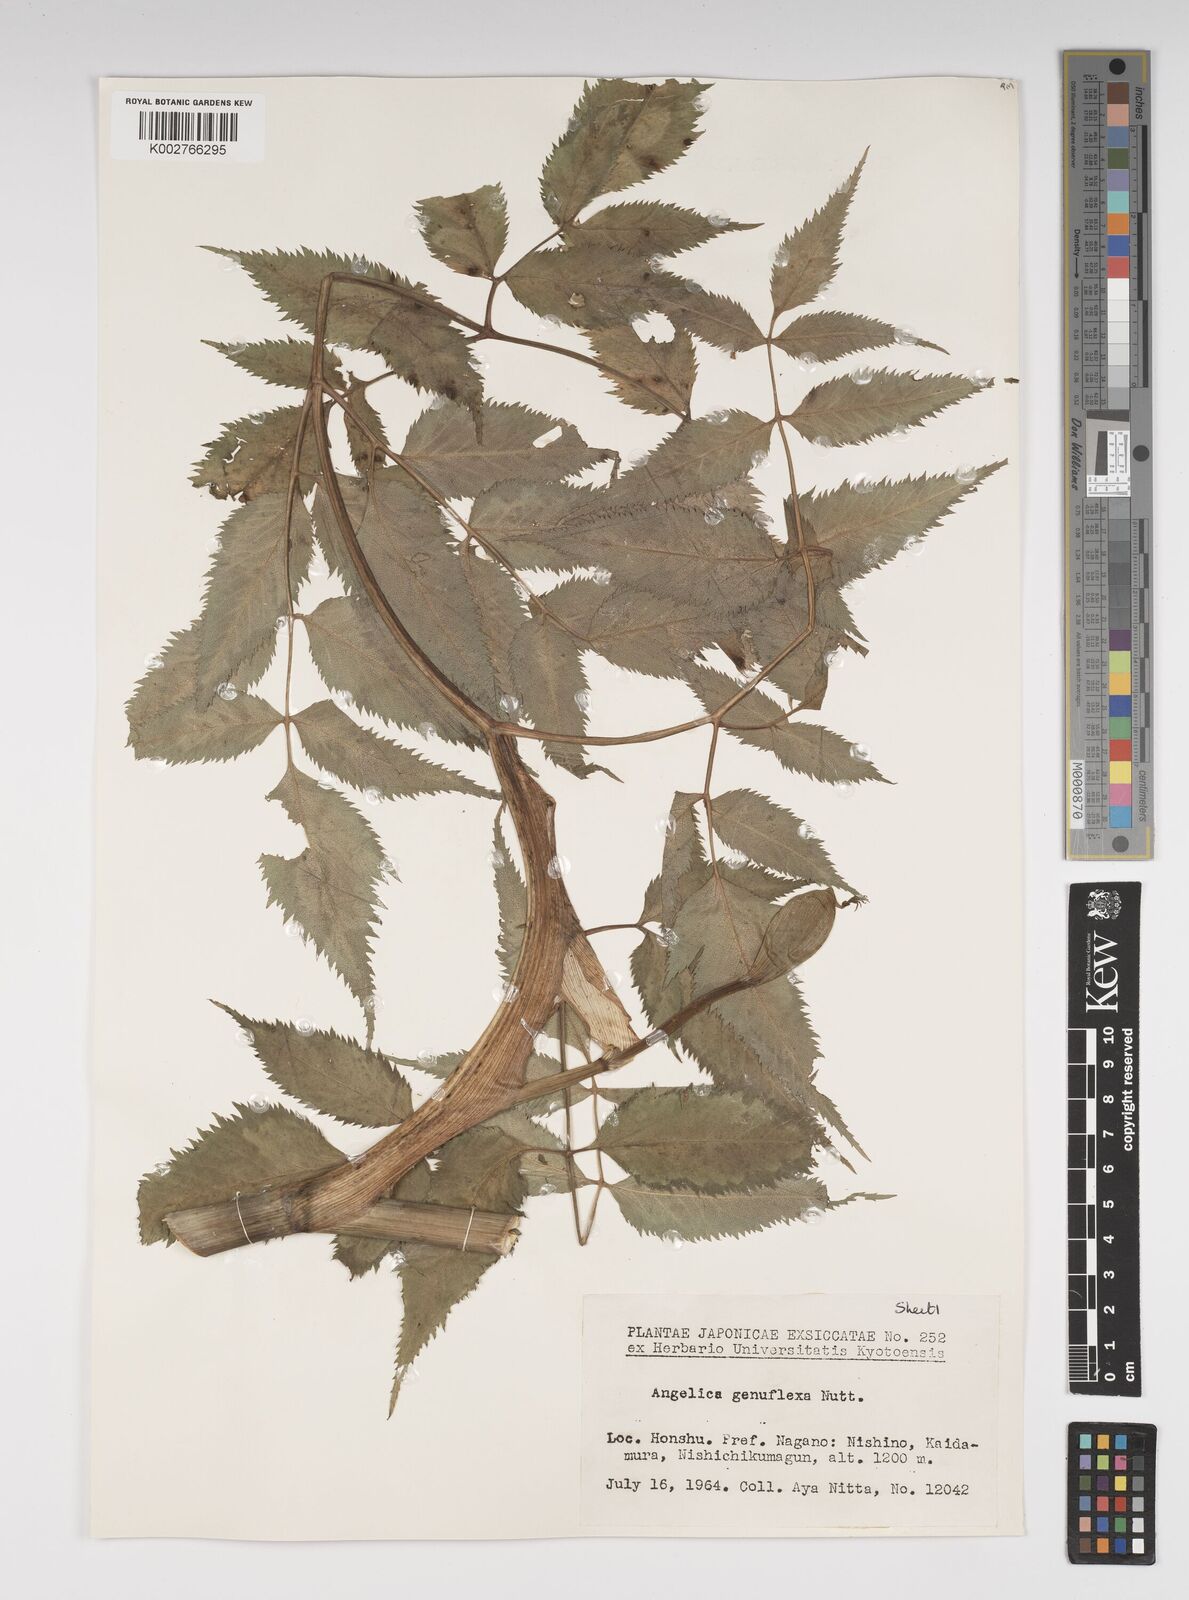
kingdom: Plantae
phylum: Tracheophyta
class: Magnoliopsida
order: Apiales
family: Apiaceae
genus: Angelica
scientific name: Angelica genuflexa
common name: Kneeling angelica
